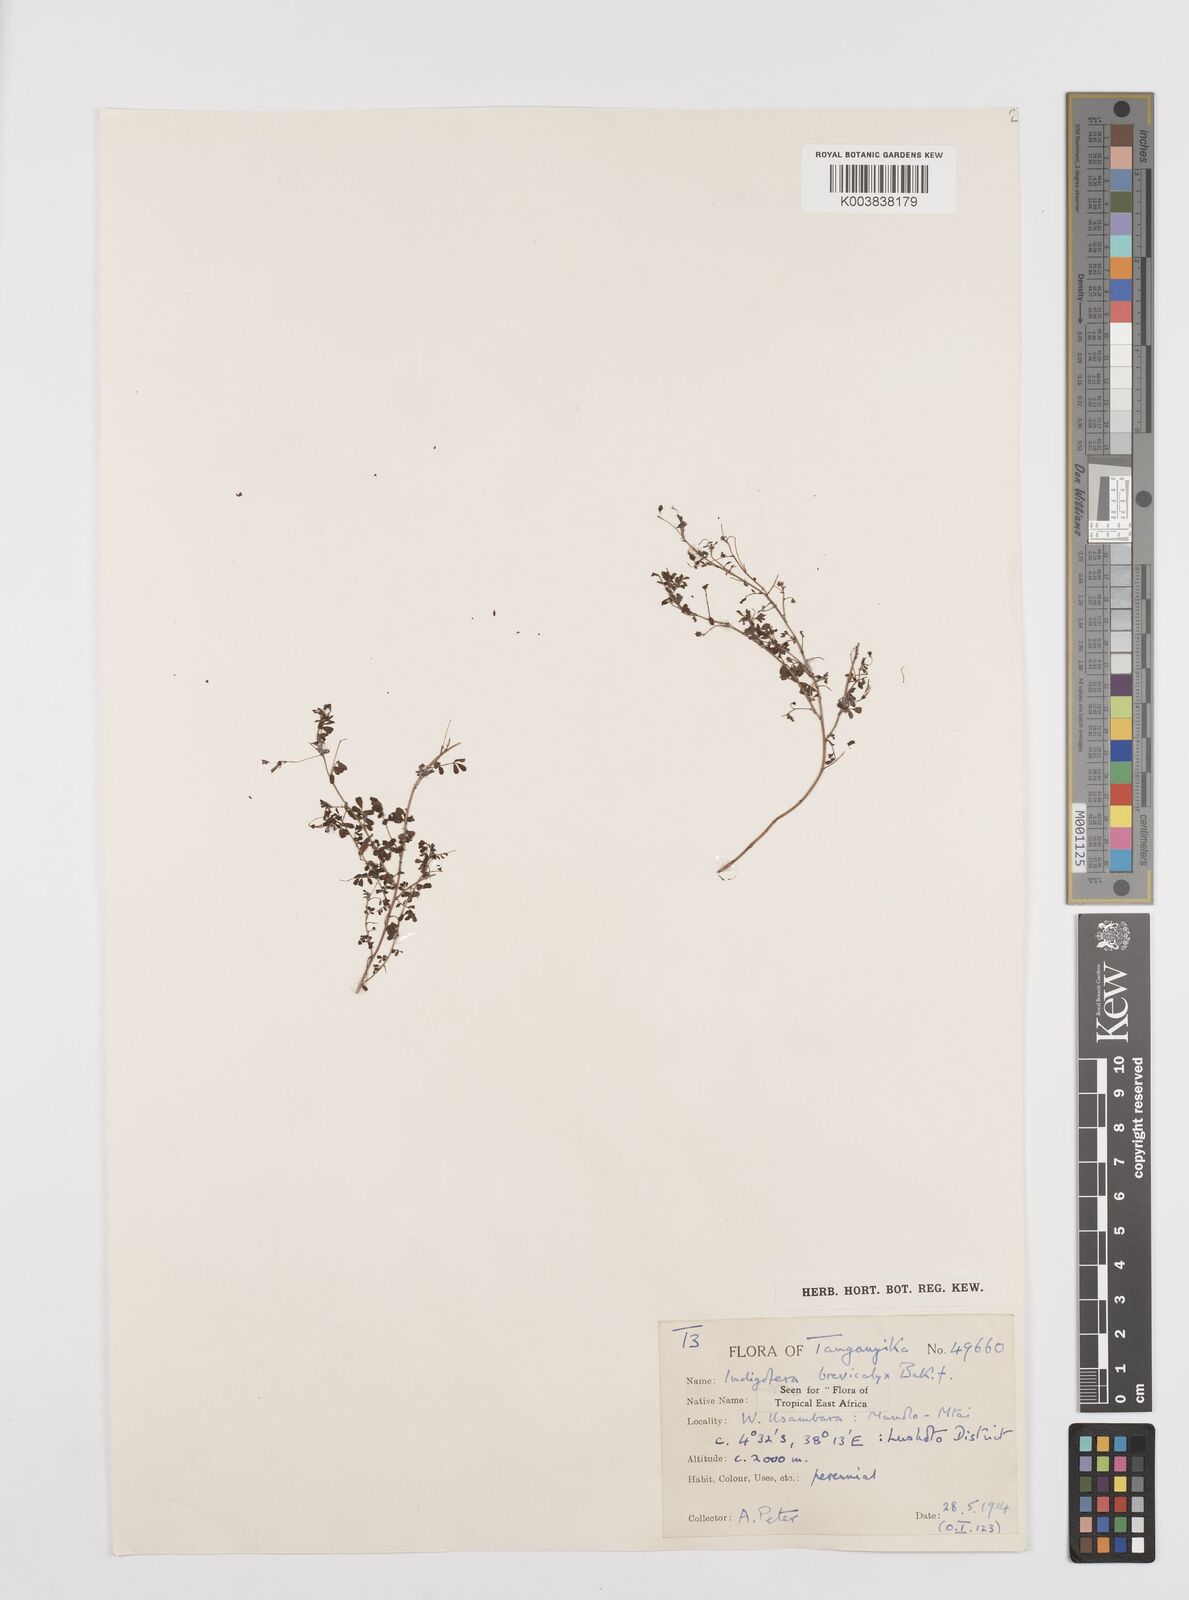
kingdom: Plantae
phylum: Tracheophyta
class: Magnoliopsida
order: Fabales
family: Fabaceae
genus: Indigofera
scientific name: Indigofera brevicalyx
